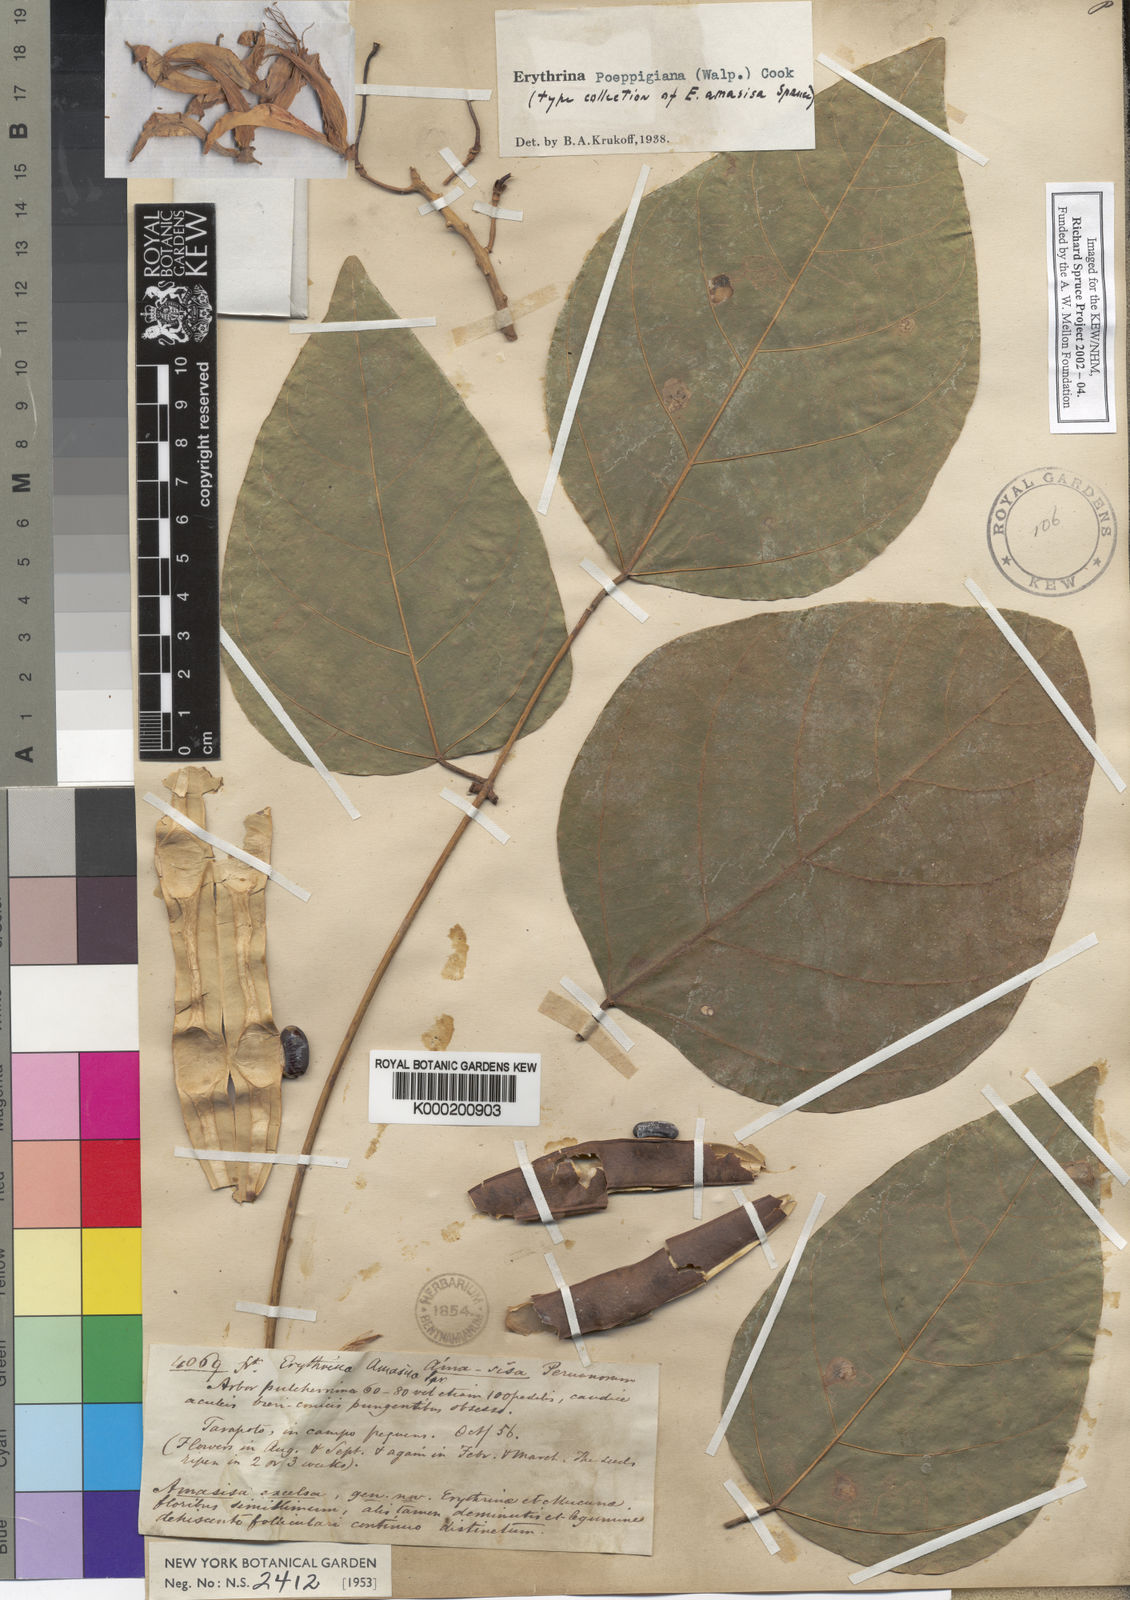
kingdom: Plantae
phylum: Tracheophyta
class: Magnoliopsida
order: Fabales
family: Fabaceae
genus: Erythrina
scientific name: Erythrina poeppigiana
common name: Coral tree
